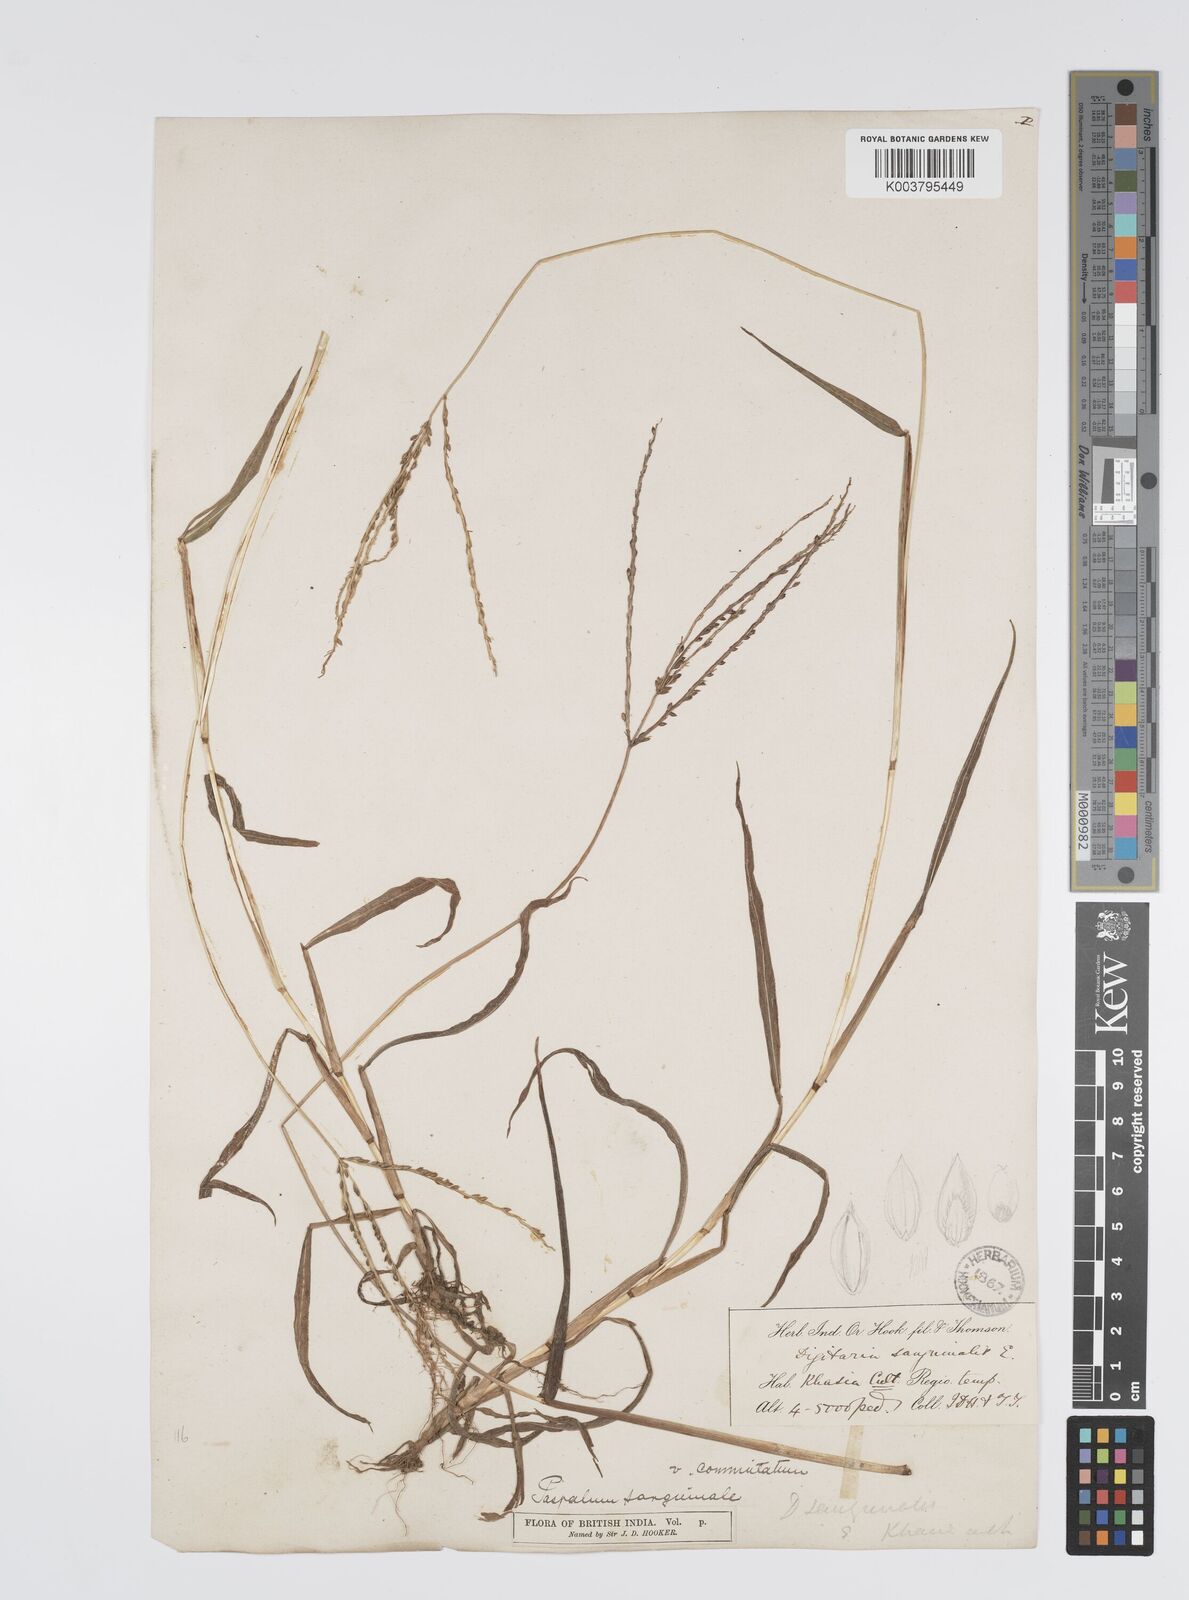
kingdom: Plantae
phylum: Tracheophyta
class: Liliopsida
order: Poales
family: Poaceae
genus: Digitaria
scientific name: Digitaria cruciata
